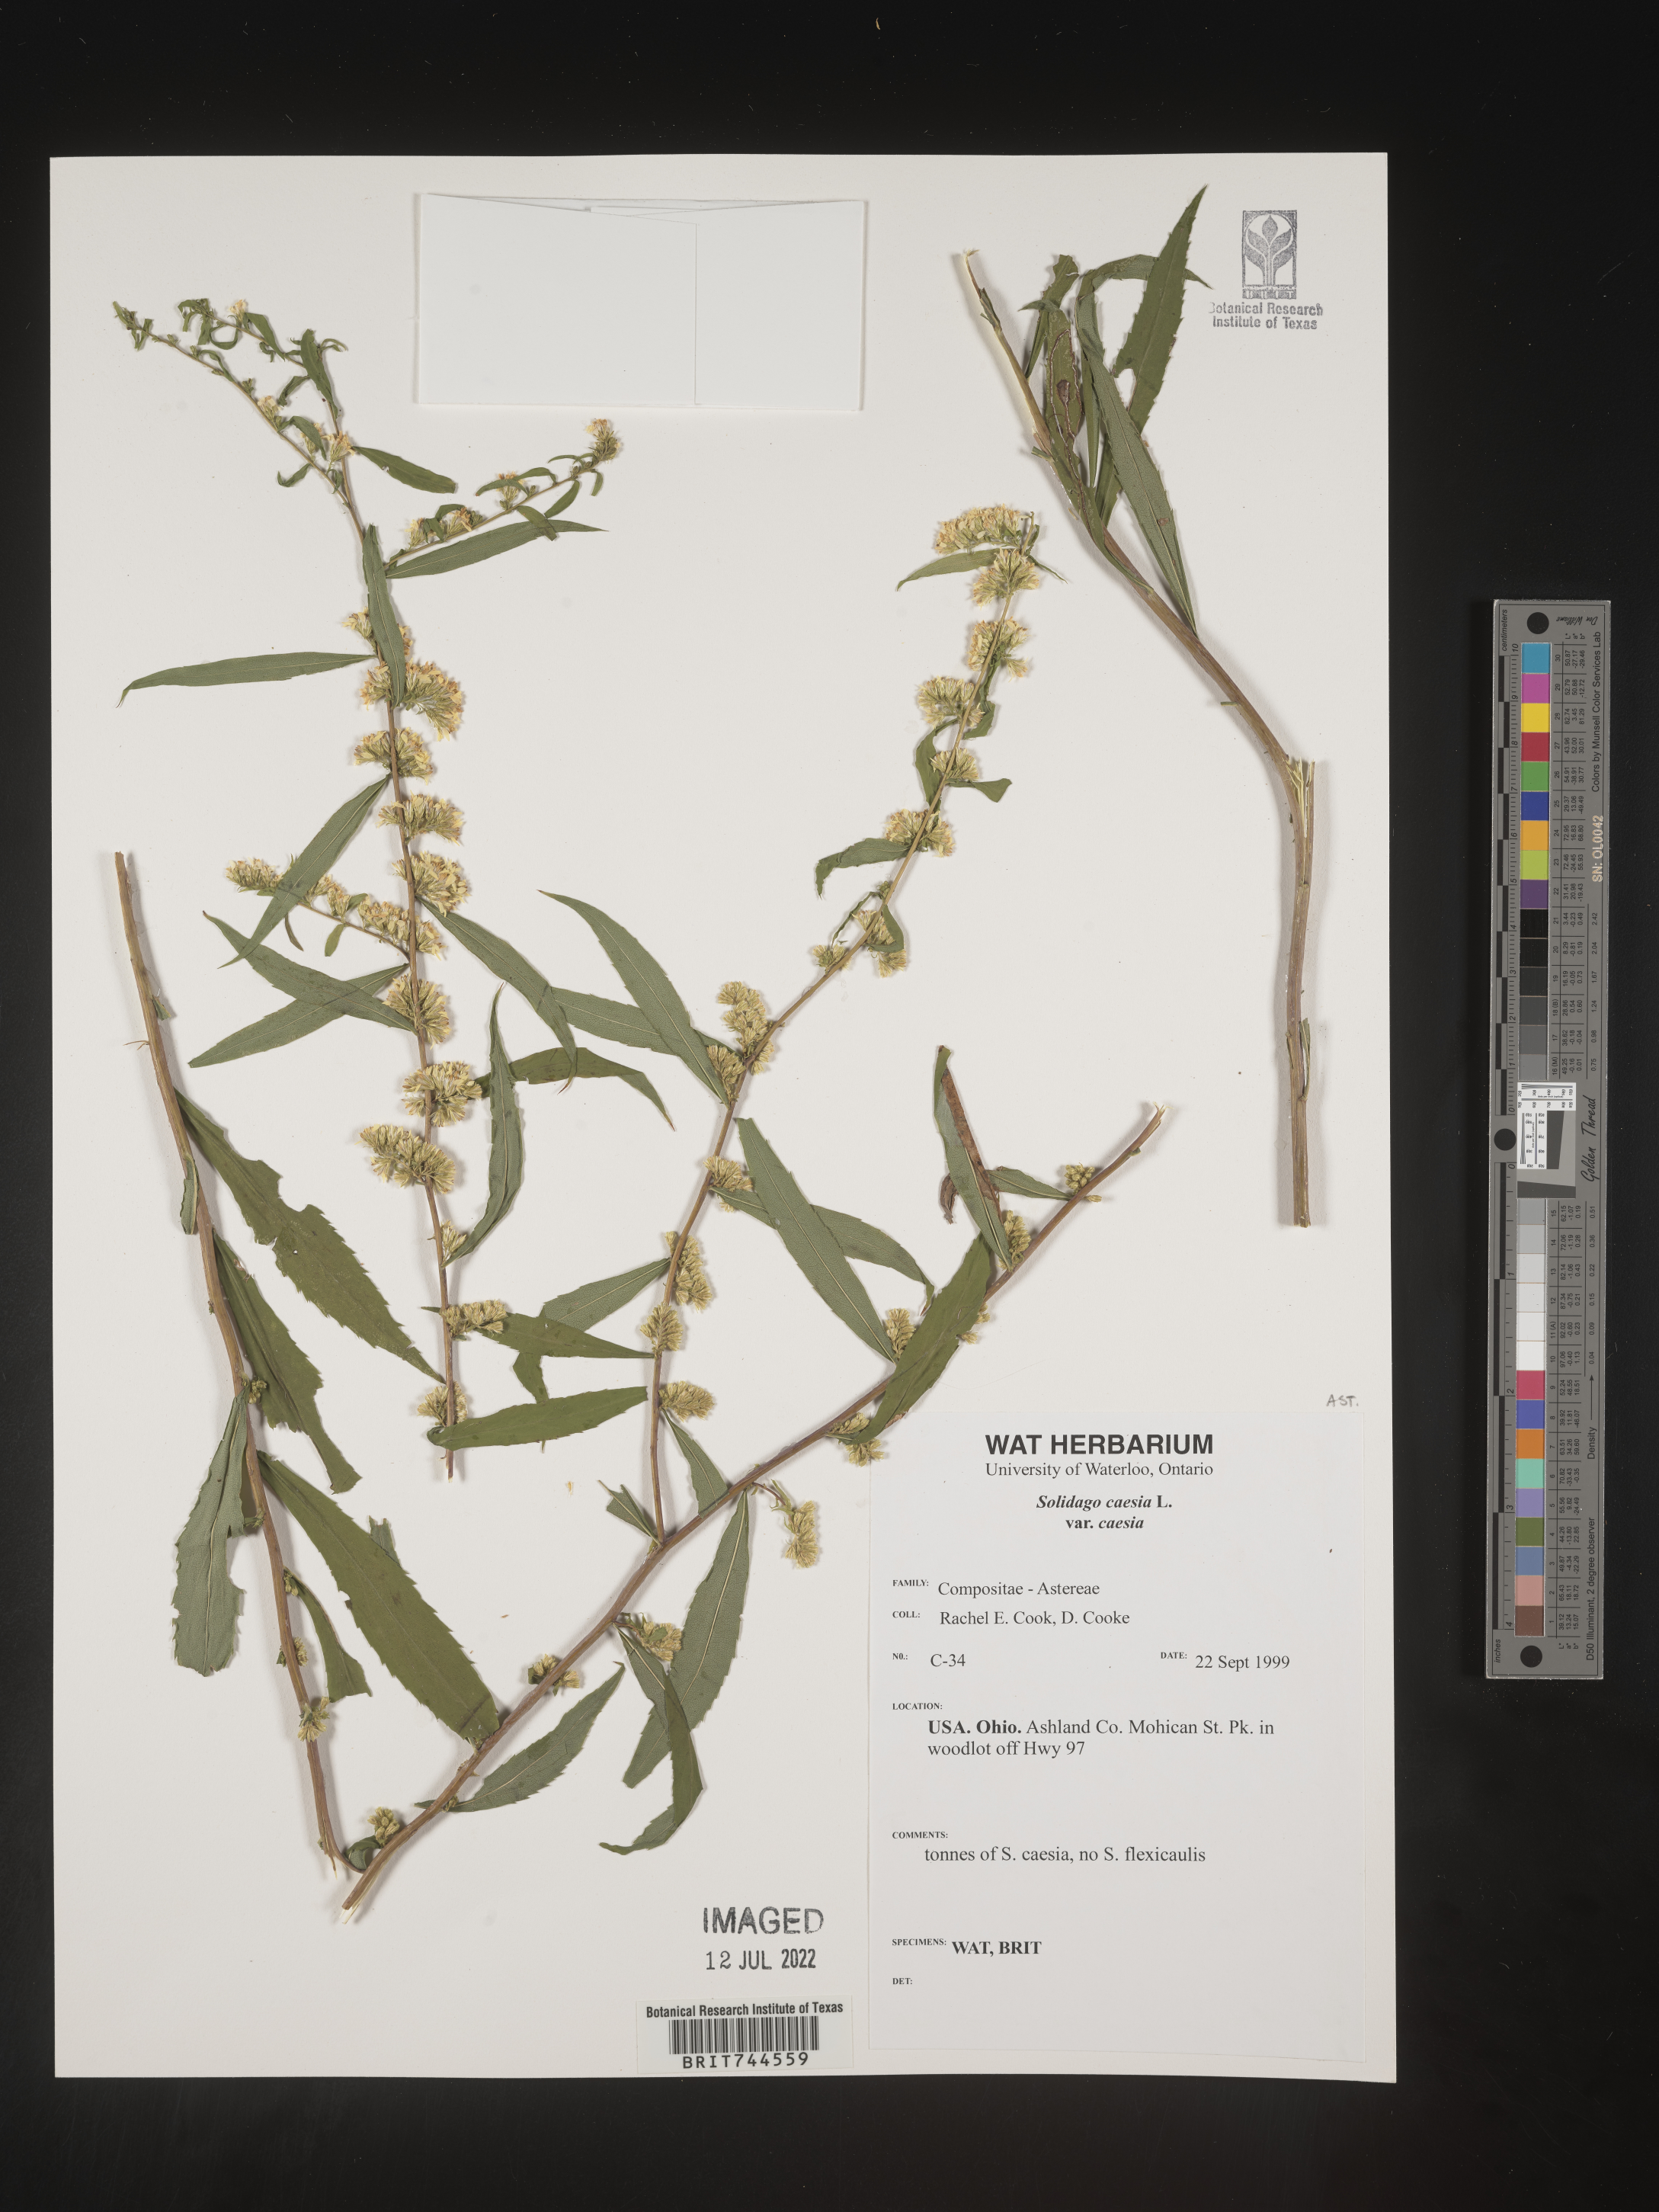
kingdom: Plantae
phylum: Tracheophyta
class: Magnoliopsida
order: Asterales
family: Asteraceae
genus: Solidago
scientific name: Solidago caesia
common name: Woodland goldenrod
